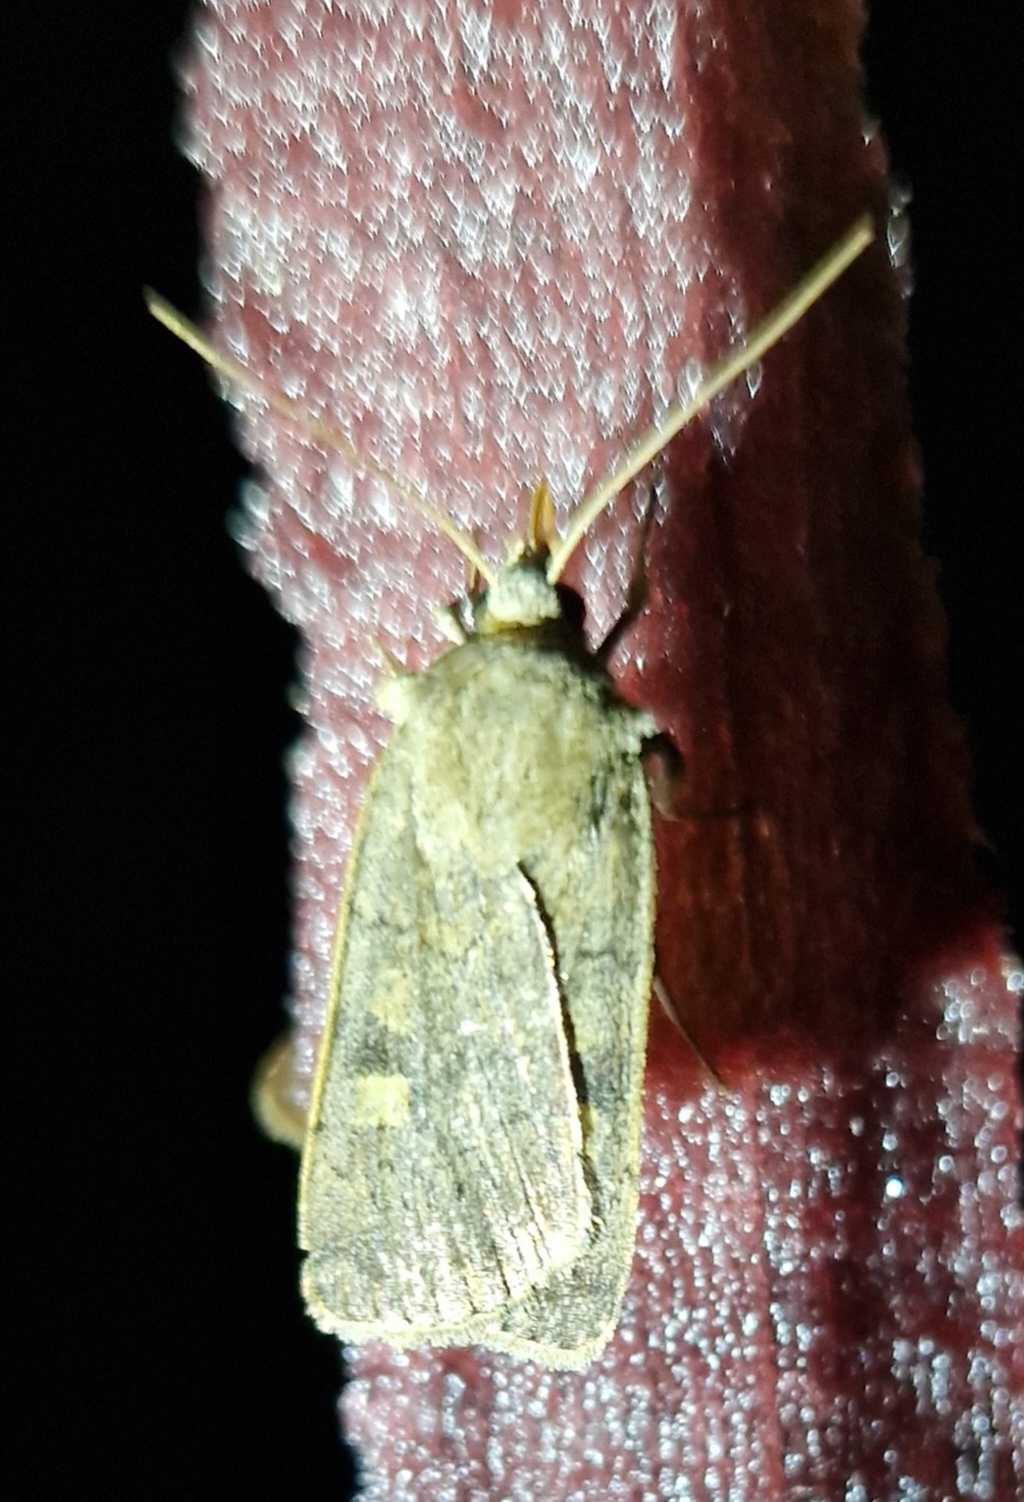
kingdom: Animalia
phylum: Arthropoda
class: Insecta
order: Lepidoptera
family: Noctuidae
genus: Xestia
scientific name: Xestia xanthographa
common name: Gulmærket glansugle
